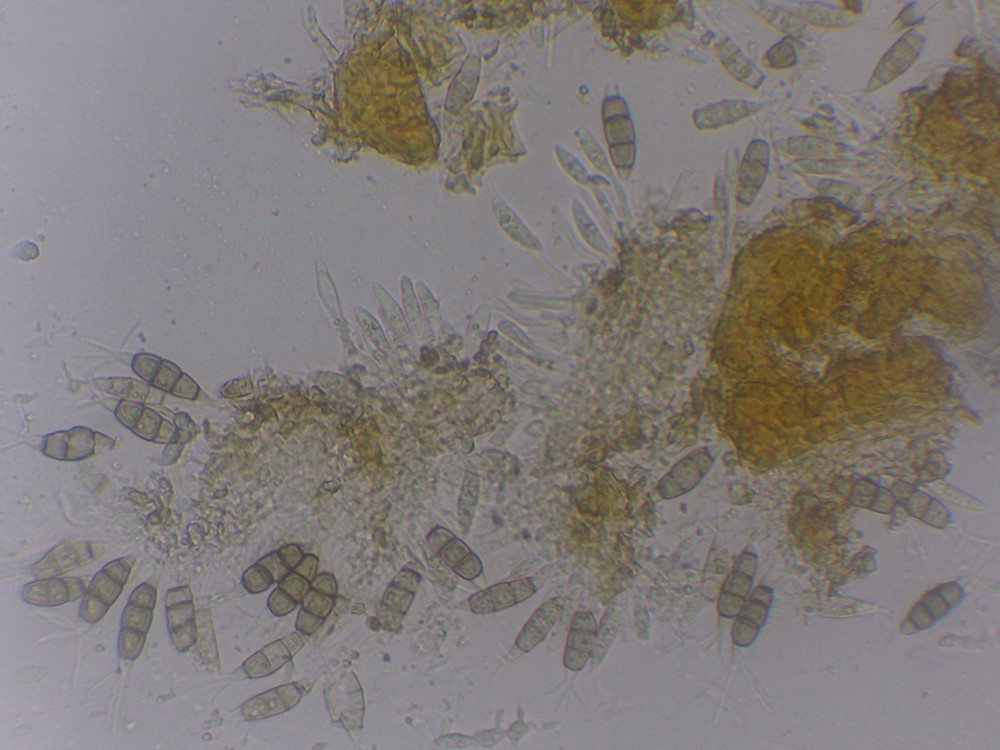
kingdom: Fungi
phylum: Ascomycota
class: Sordariomycetes
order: Amphisphaeriales
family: Pestalotiopsidaceae
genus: Pestalotiopsis
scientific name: Pestalotiopsis funerea
